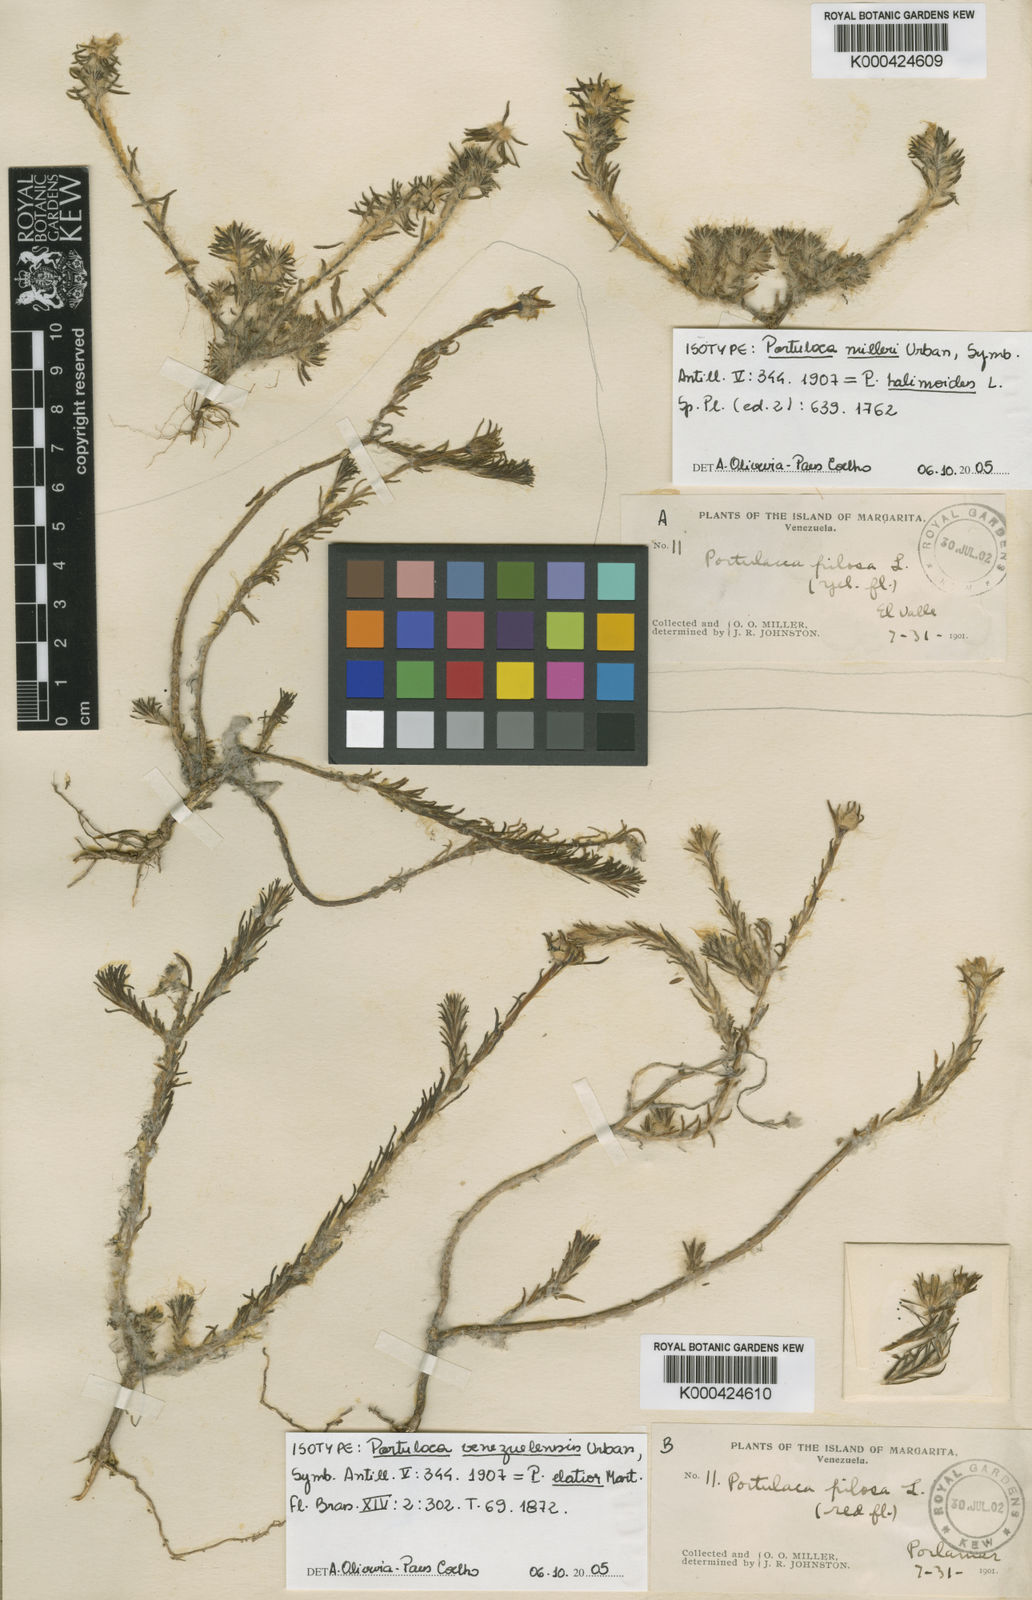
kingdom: Plantae
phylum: Tracheophyta
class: Magnoliopsida
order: Caryophyllales
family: Portulacaceae
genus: Portulaca
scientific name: Portulaca elatior
